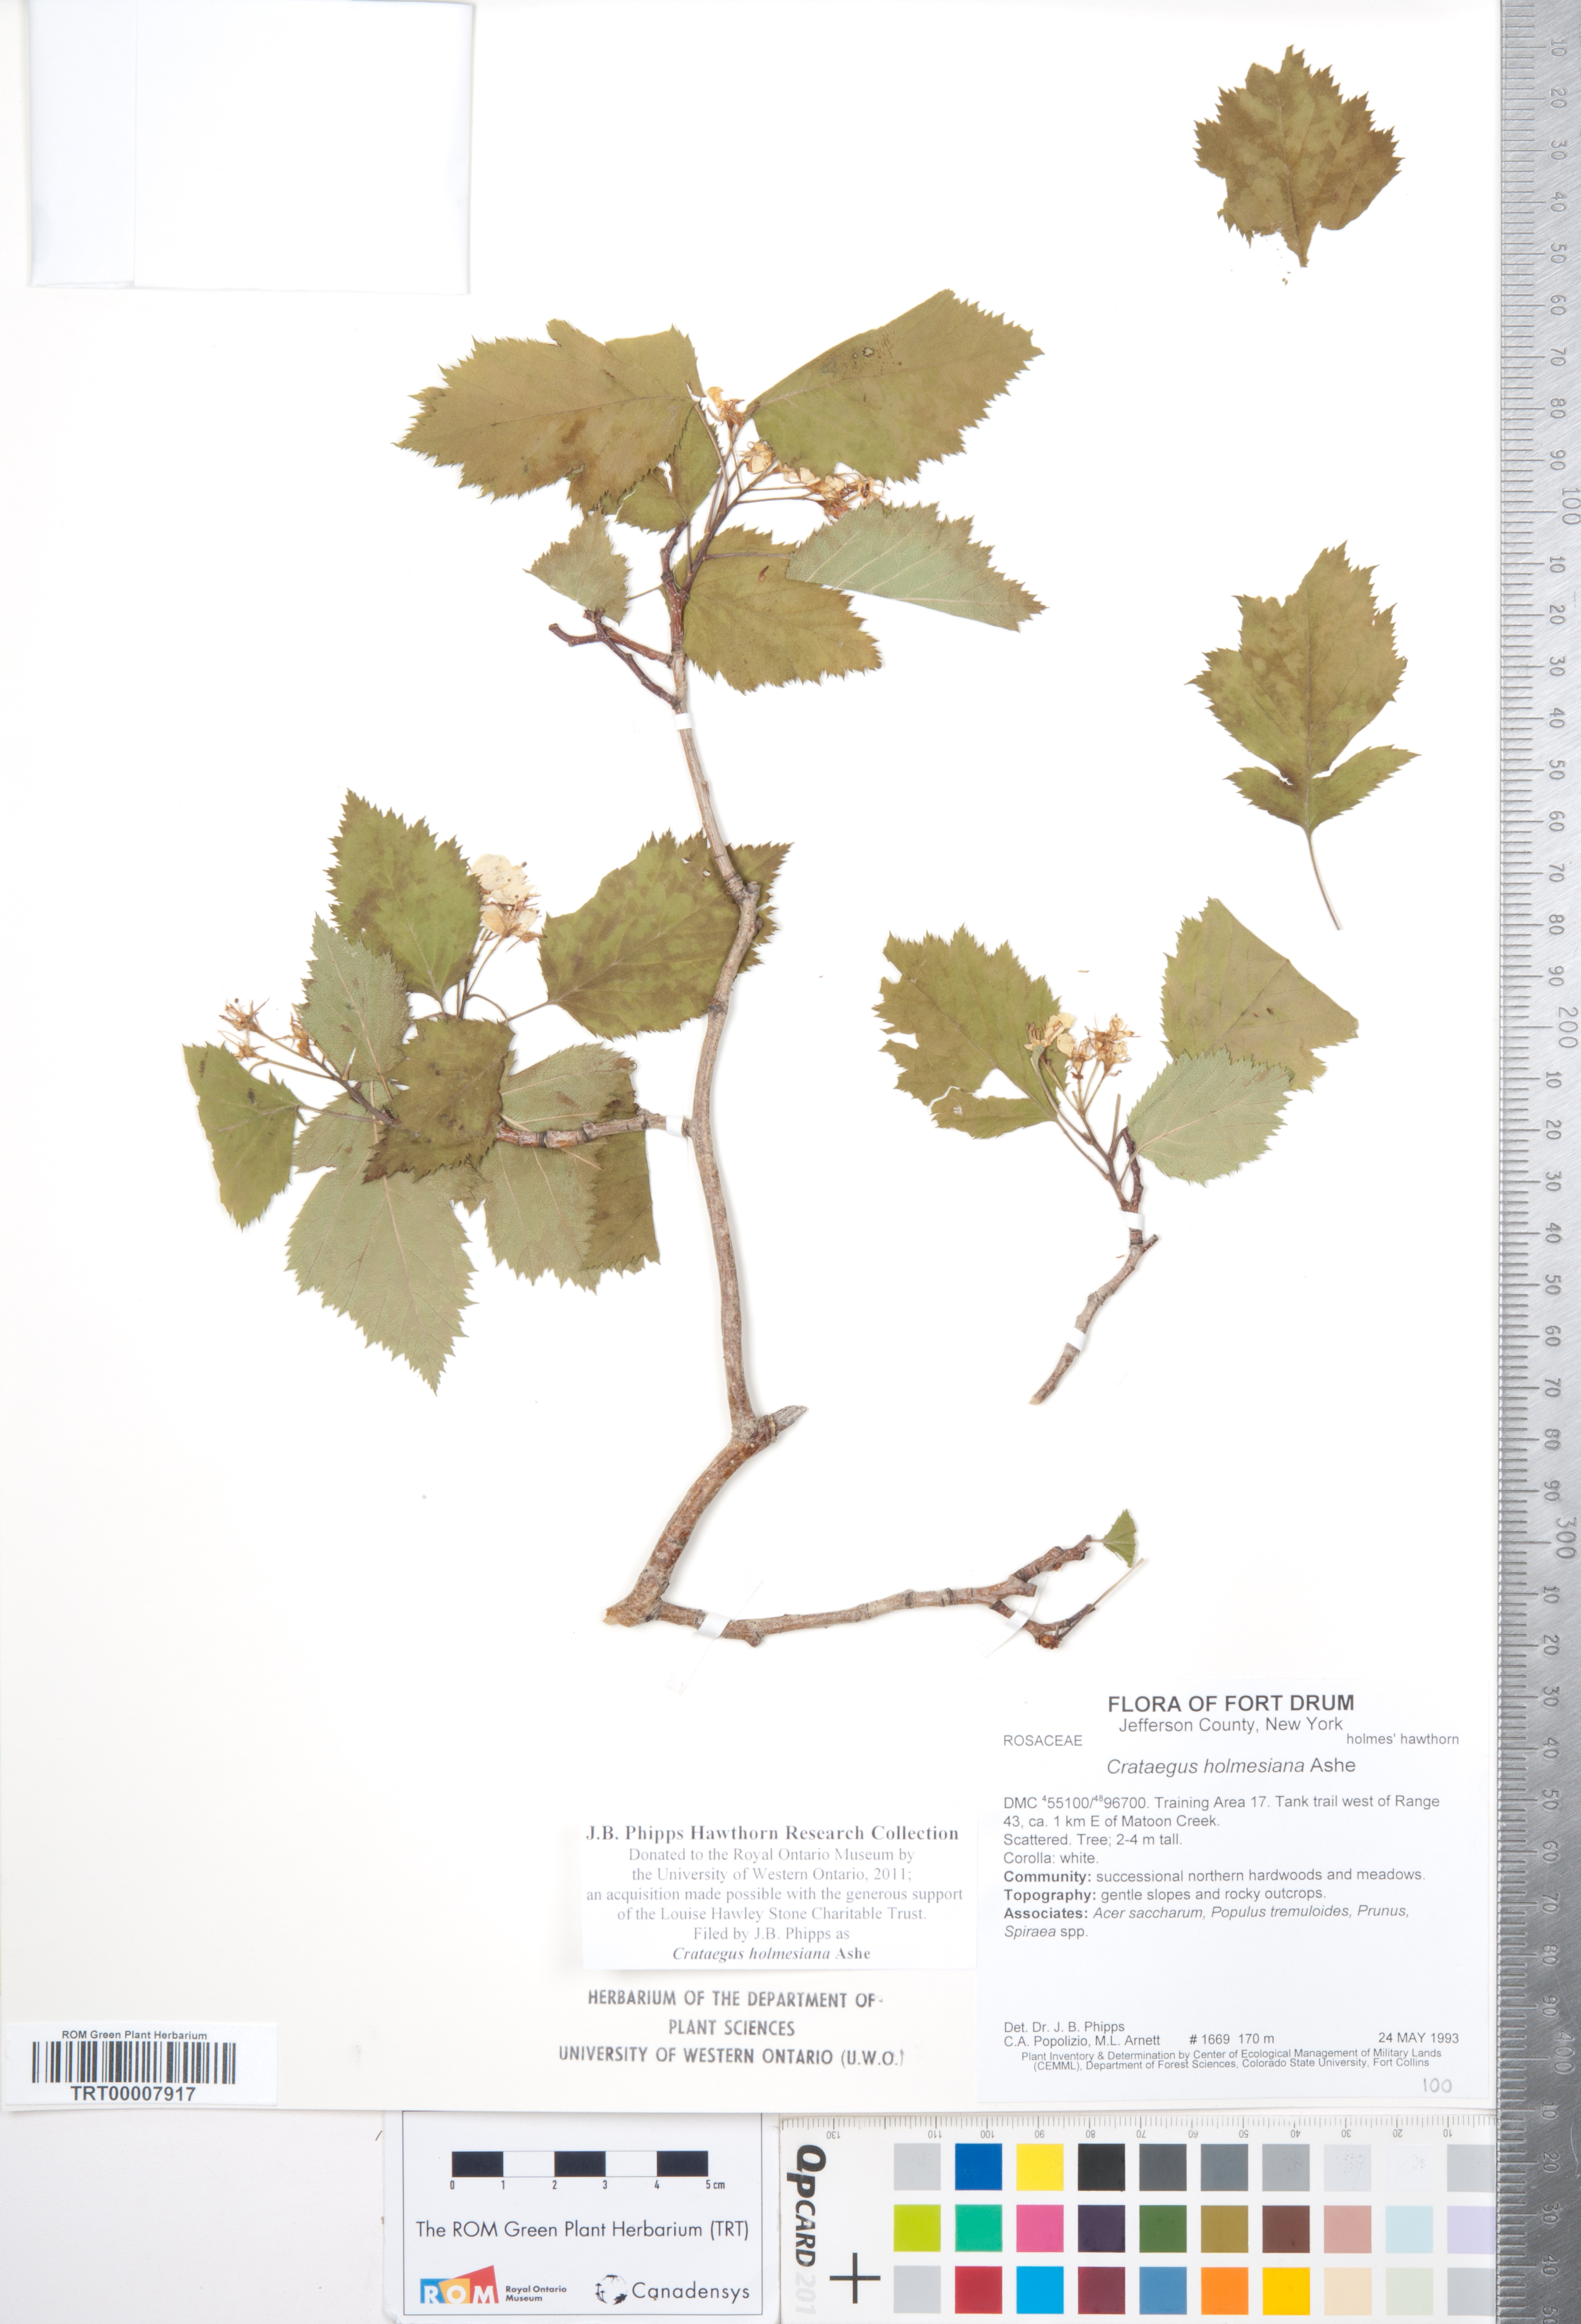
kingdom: Plantae
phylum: Tracheophyta
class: Magnoliopsida
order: Rosales
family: Rosaceae
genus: Crataegus
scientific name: Crataegus holmesiana
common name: Holmes' hawthorn
